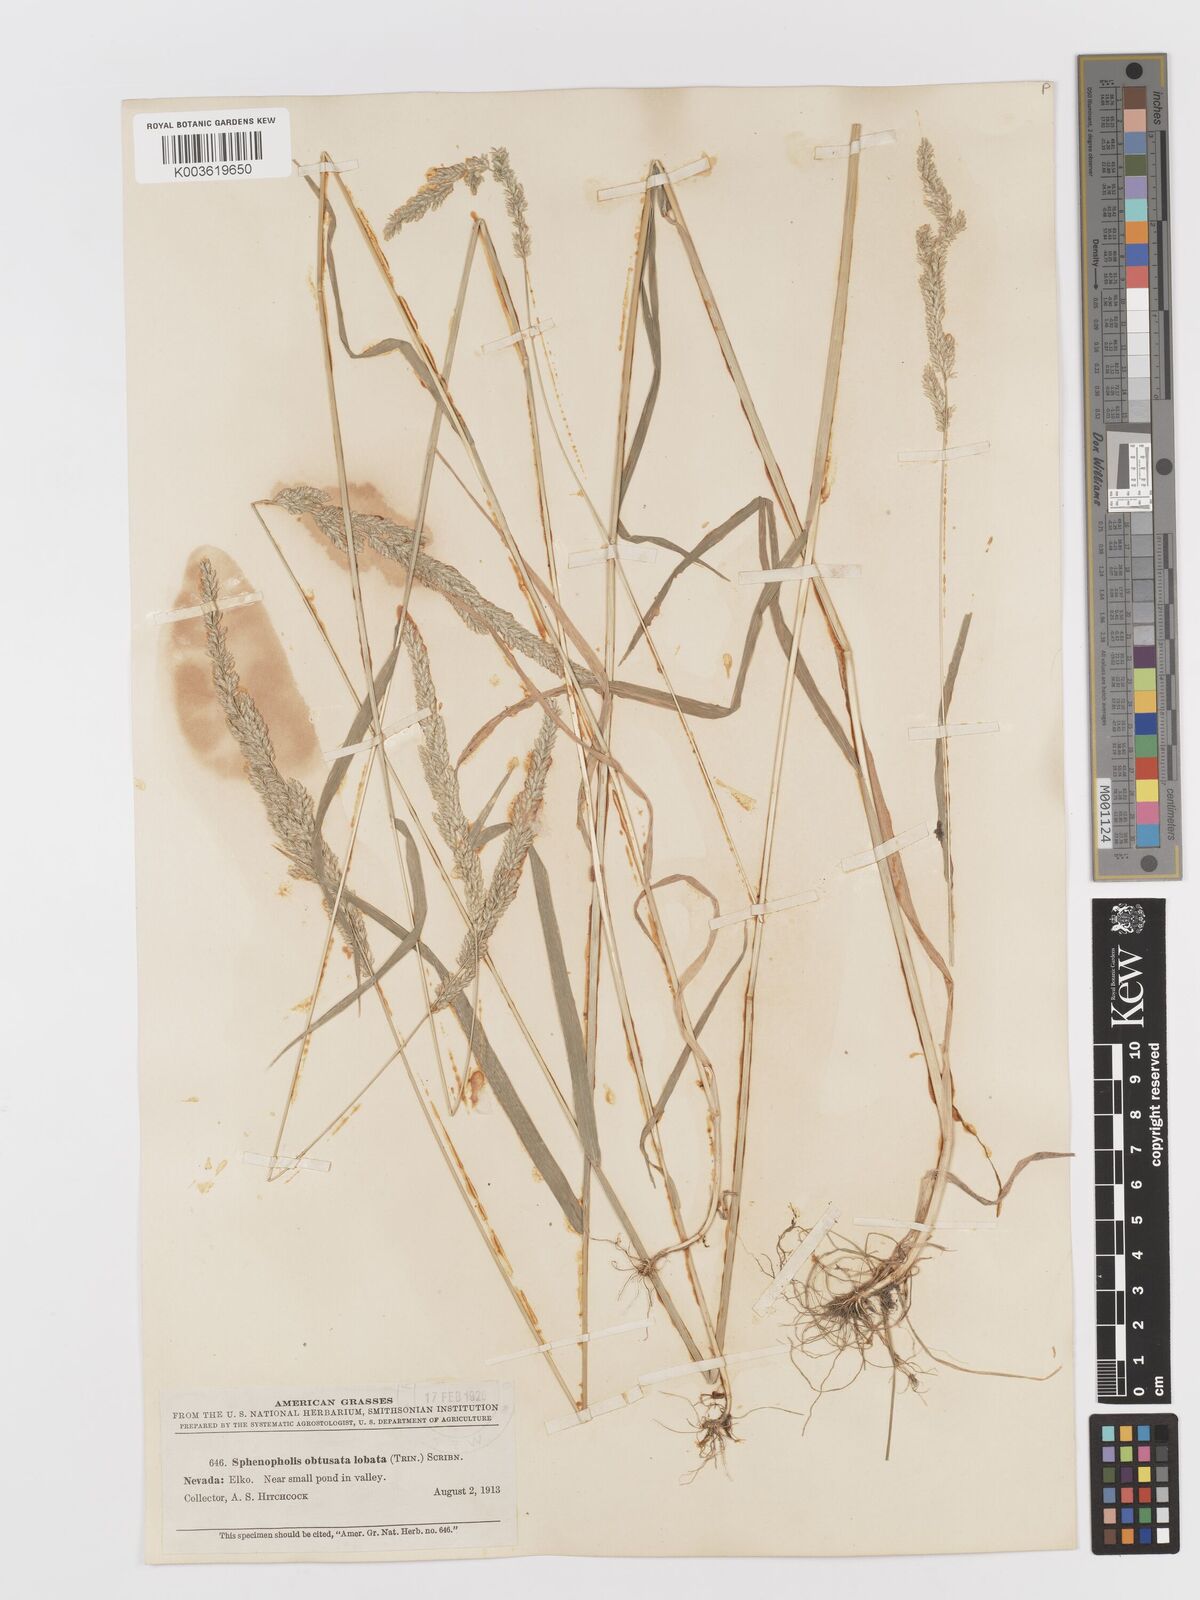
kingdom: Plantae
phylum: Tracheophyta
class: Liliopsida
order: Poales
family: Poaceae
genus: Sphenopholis
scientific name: Sphenopholis obtusata
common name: Prairie grass
